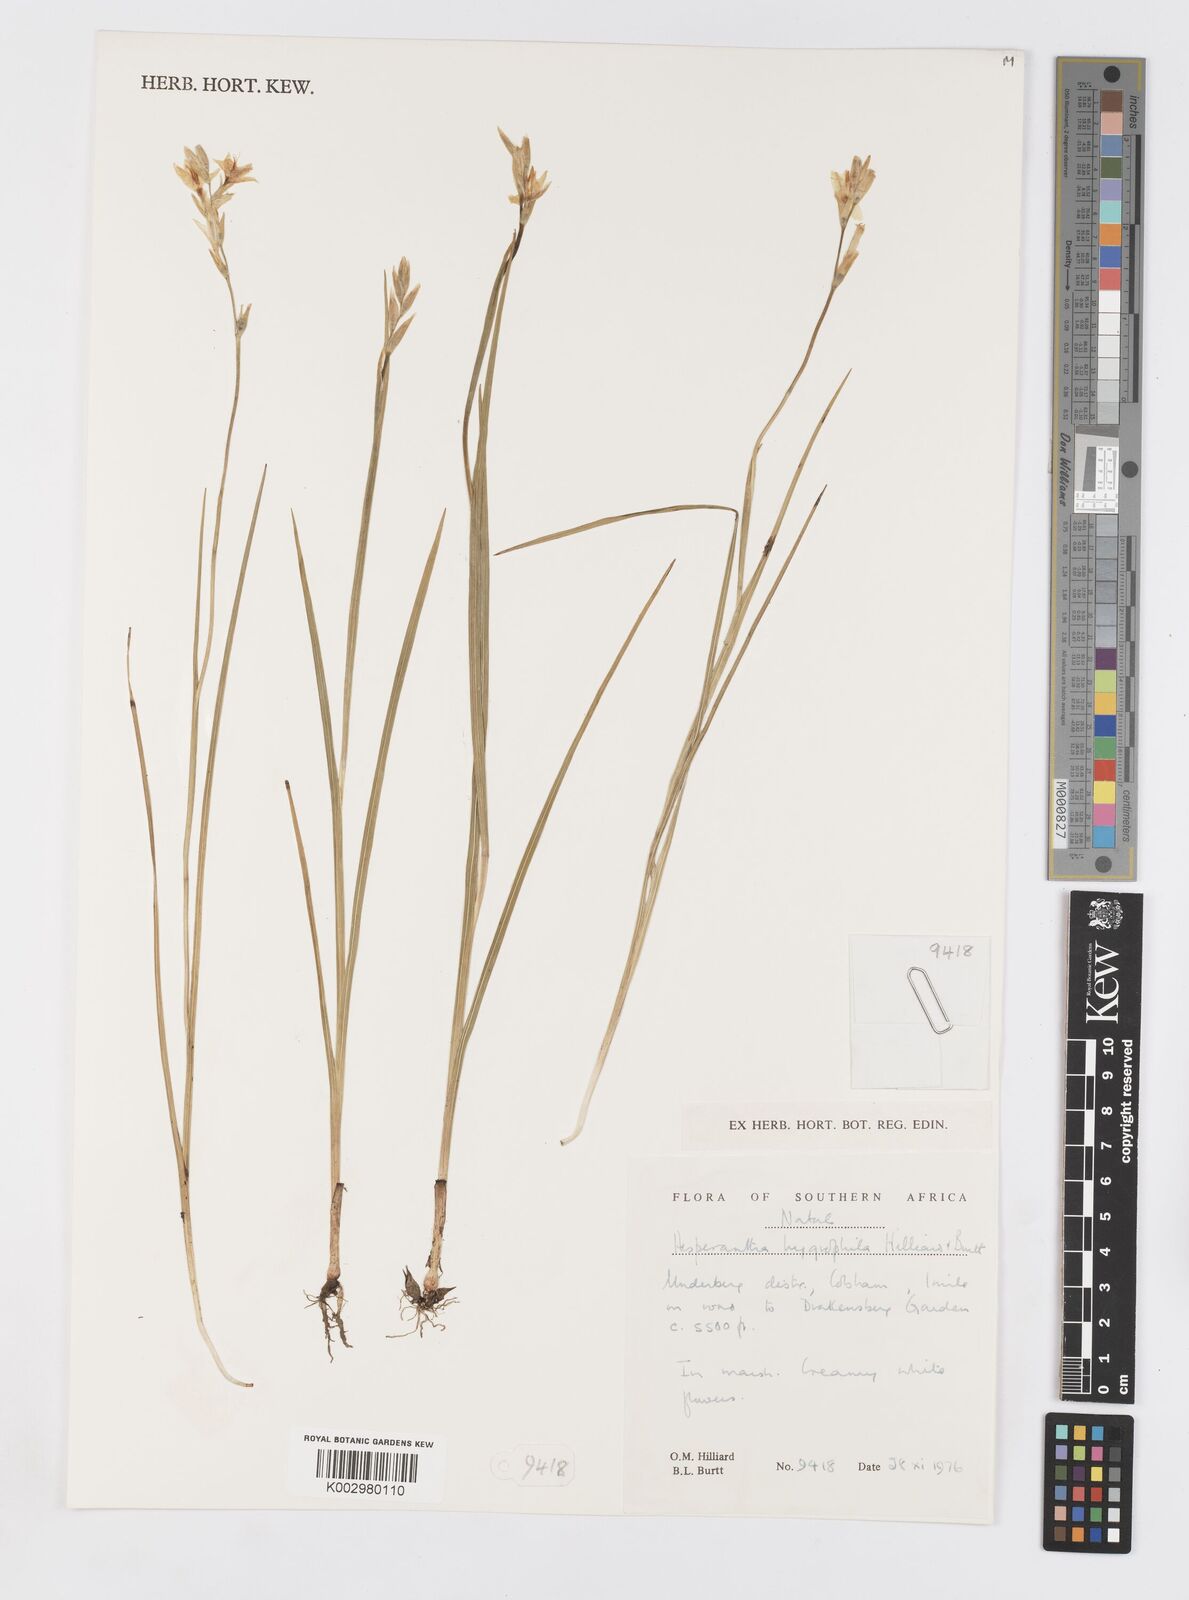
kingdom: Plantae
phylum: Tracheophyta
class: Liliopsida
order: Asparagales
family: Iridaceae
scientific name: Iridaceae
